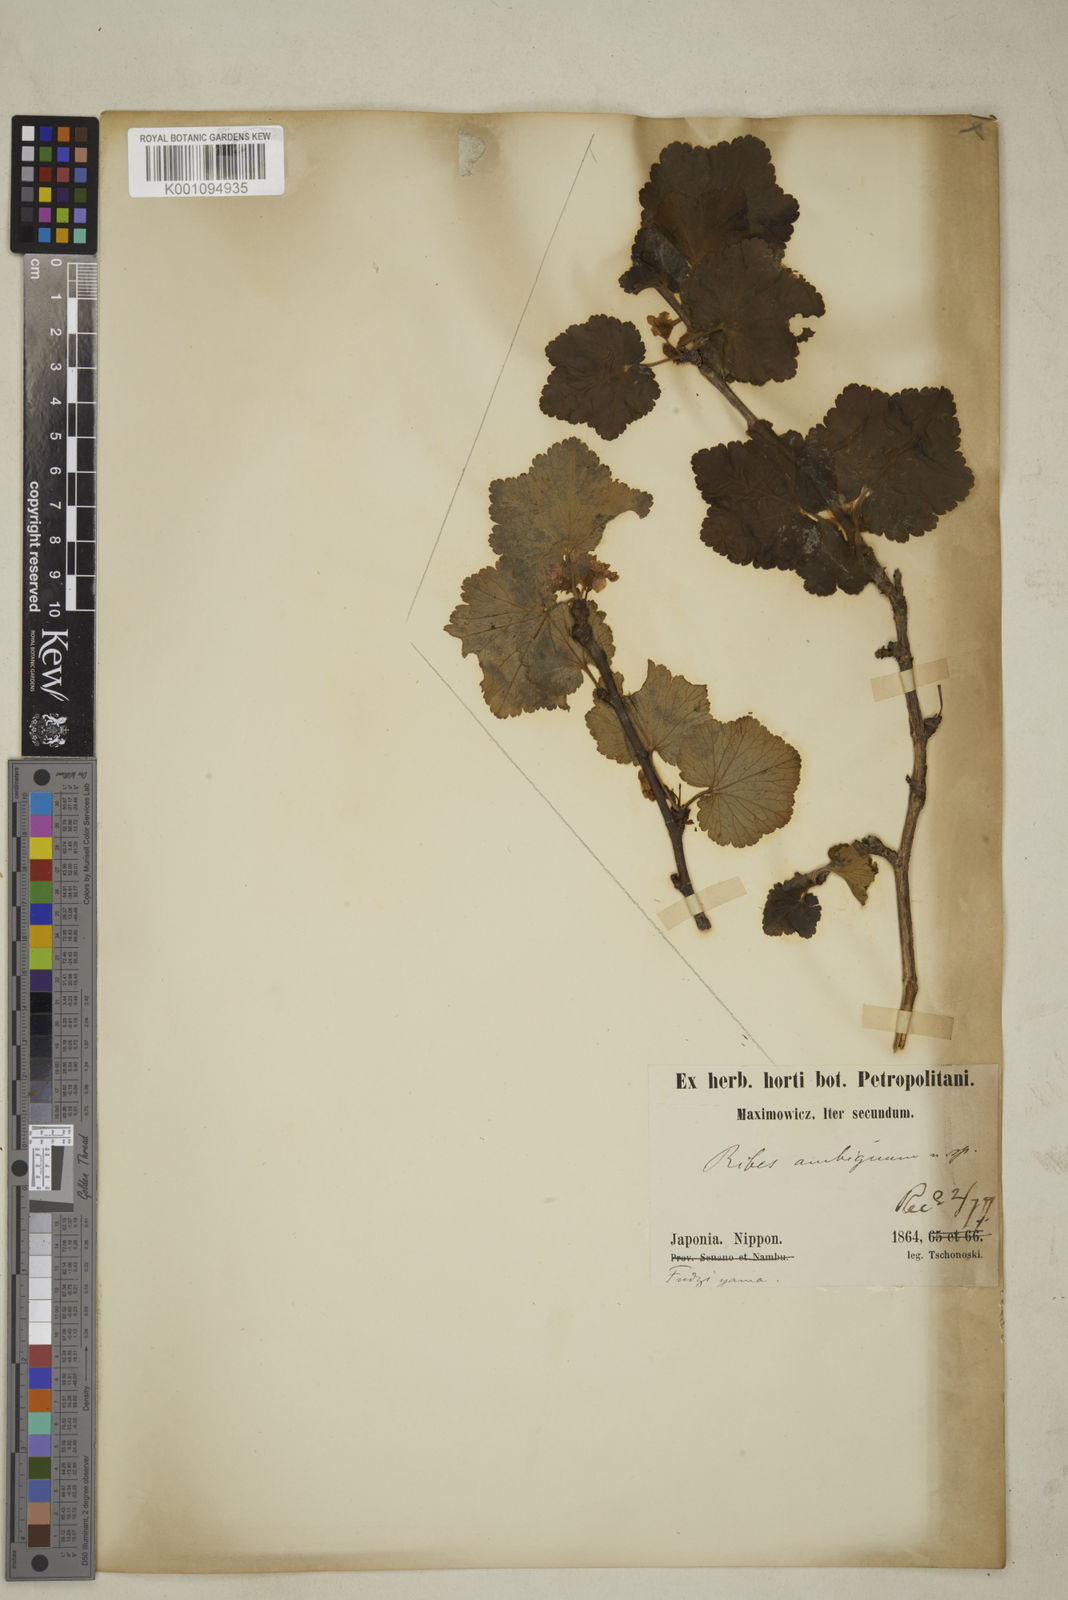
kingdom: Plantae
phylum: Tracheophyta
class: Magnoliopsida
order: Saxifragales
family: Grossulariaceae
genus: Ribes
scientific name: Ribes ambiguum
